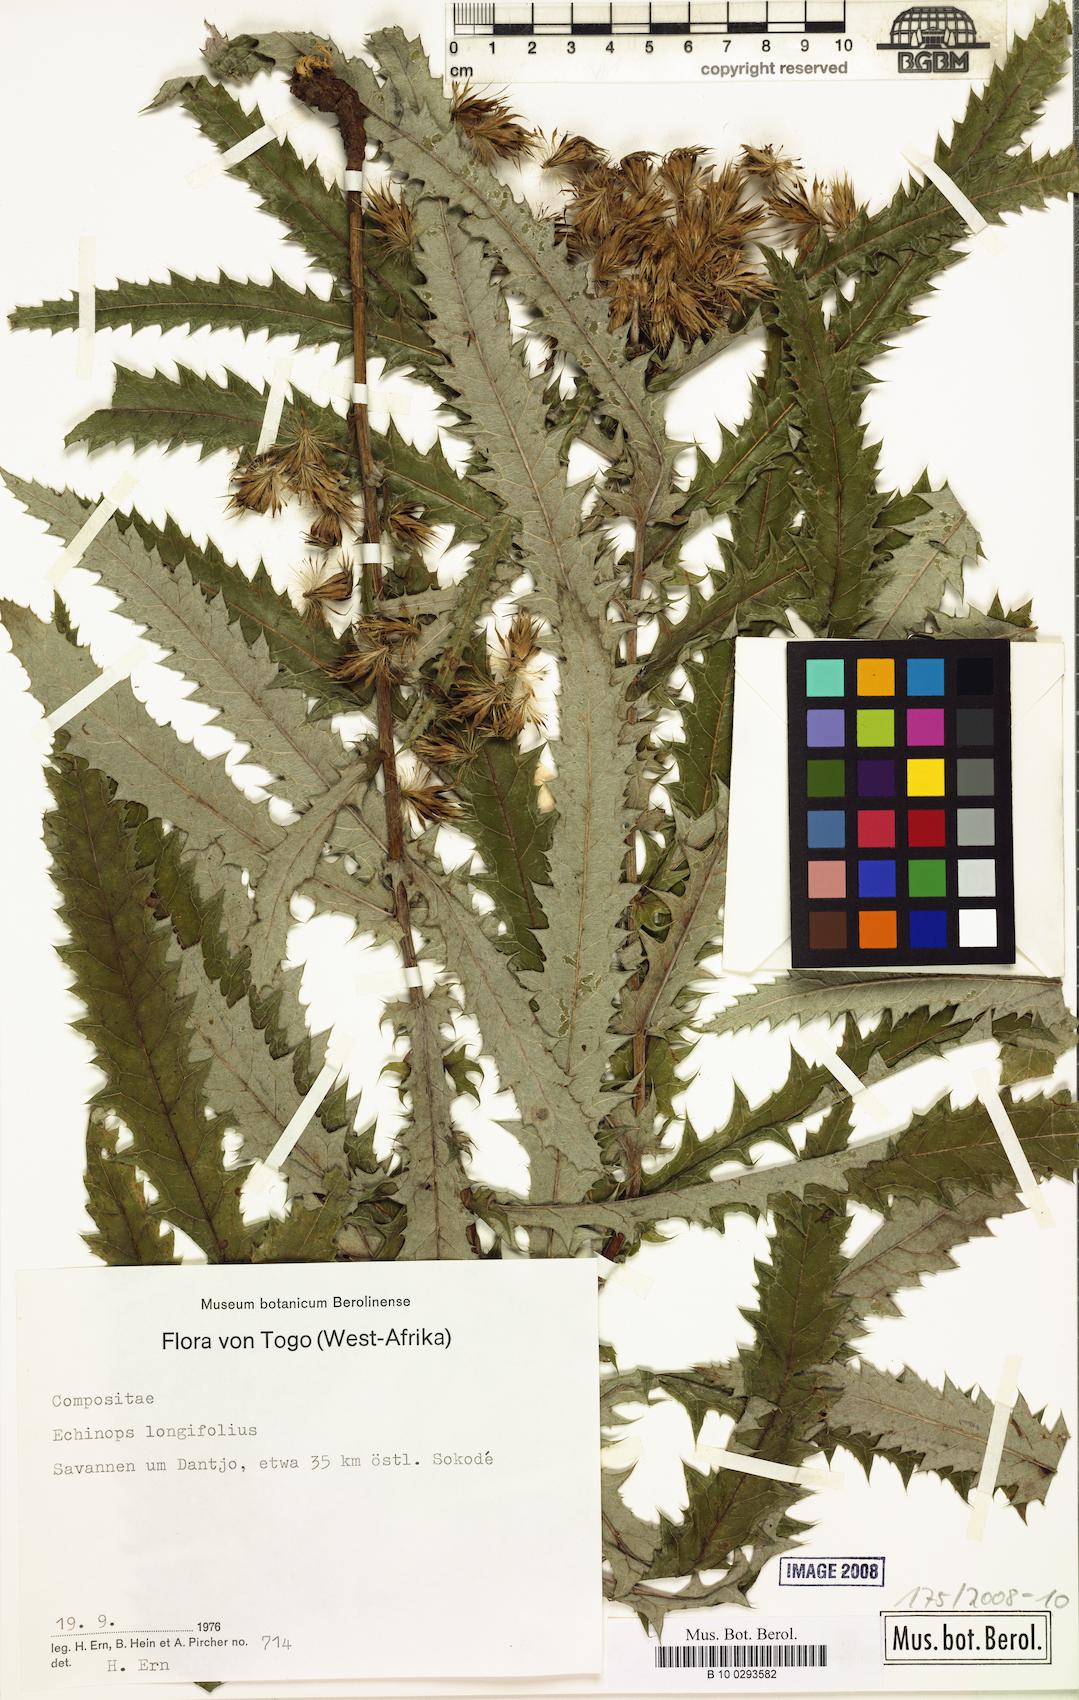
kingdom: Plantae
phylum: Tracheophyta
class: Magnoliopsida
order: Asterales
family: Asteraceae
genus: Echinops
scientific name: Echinops longifolius
